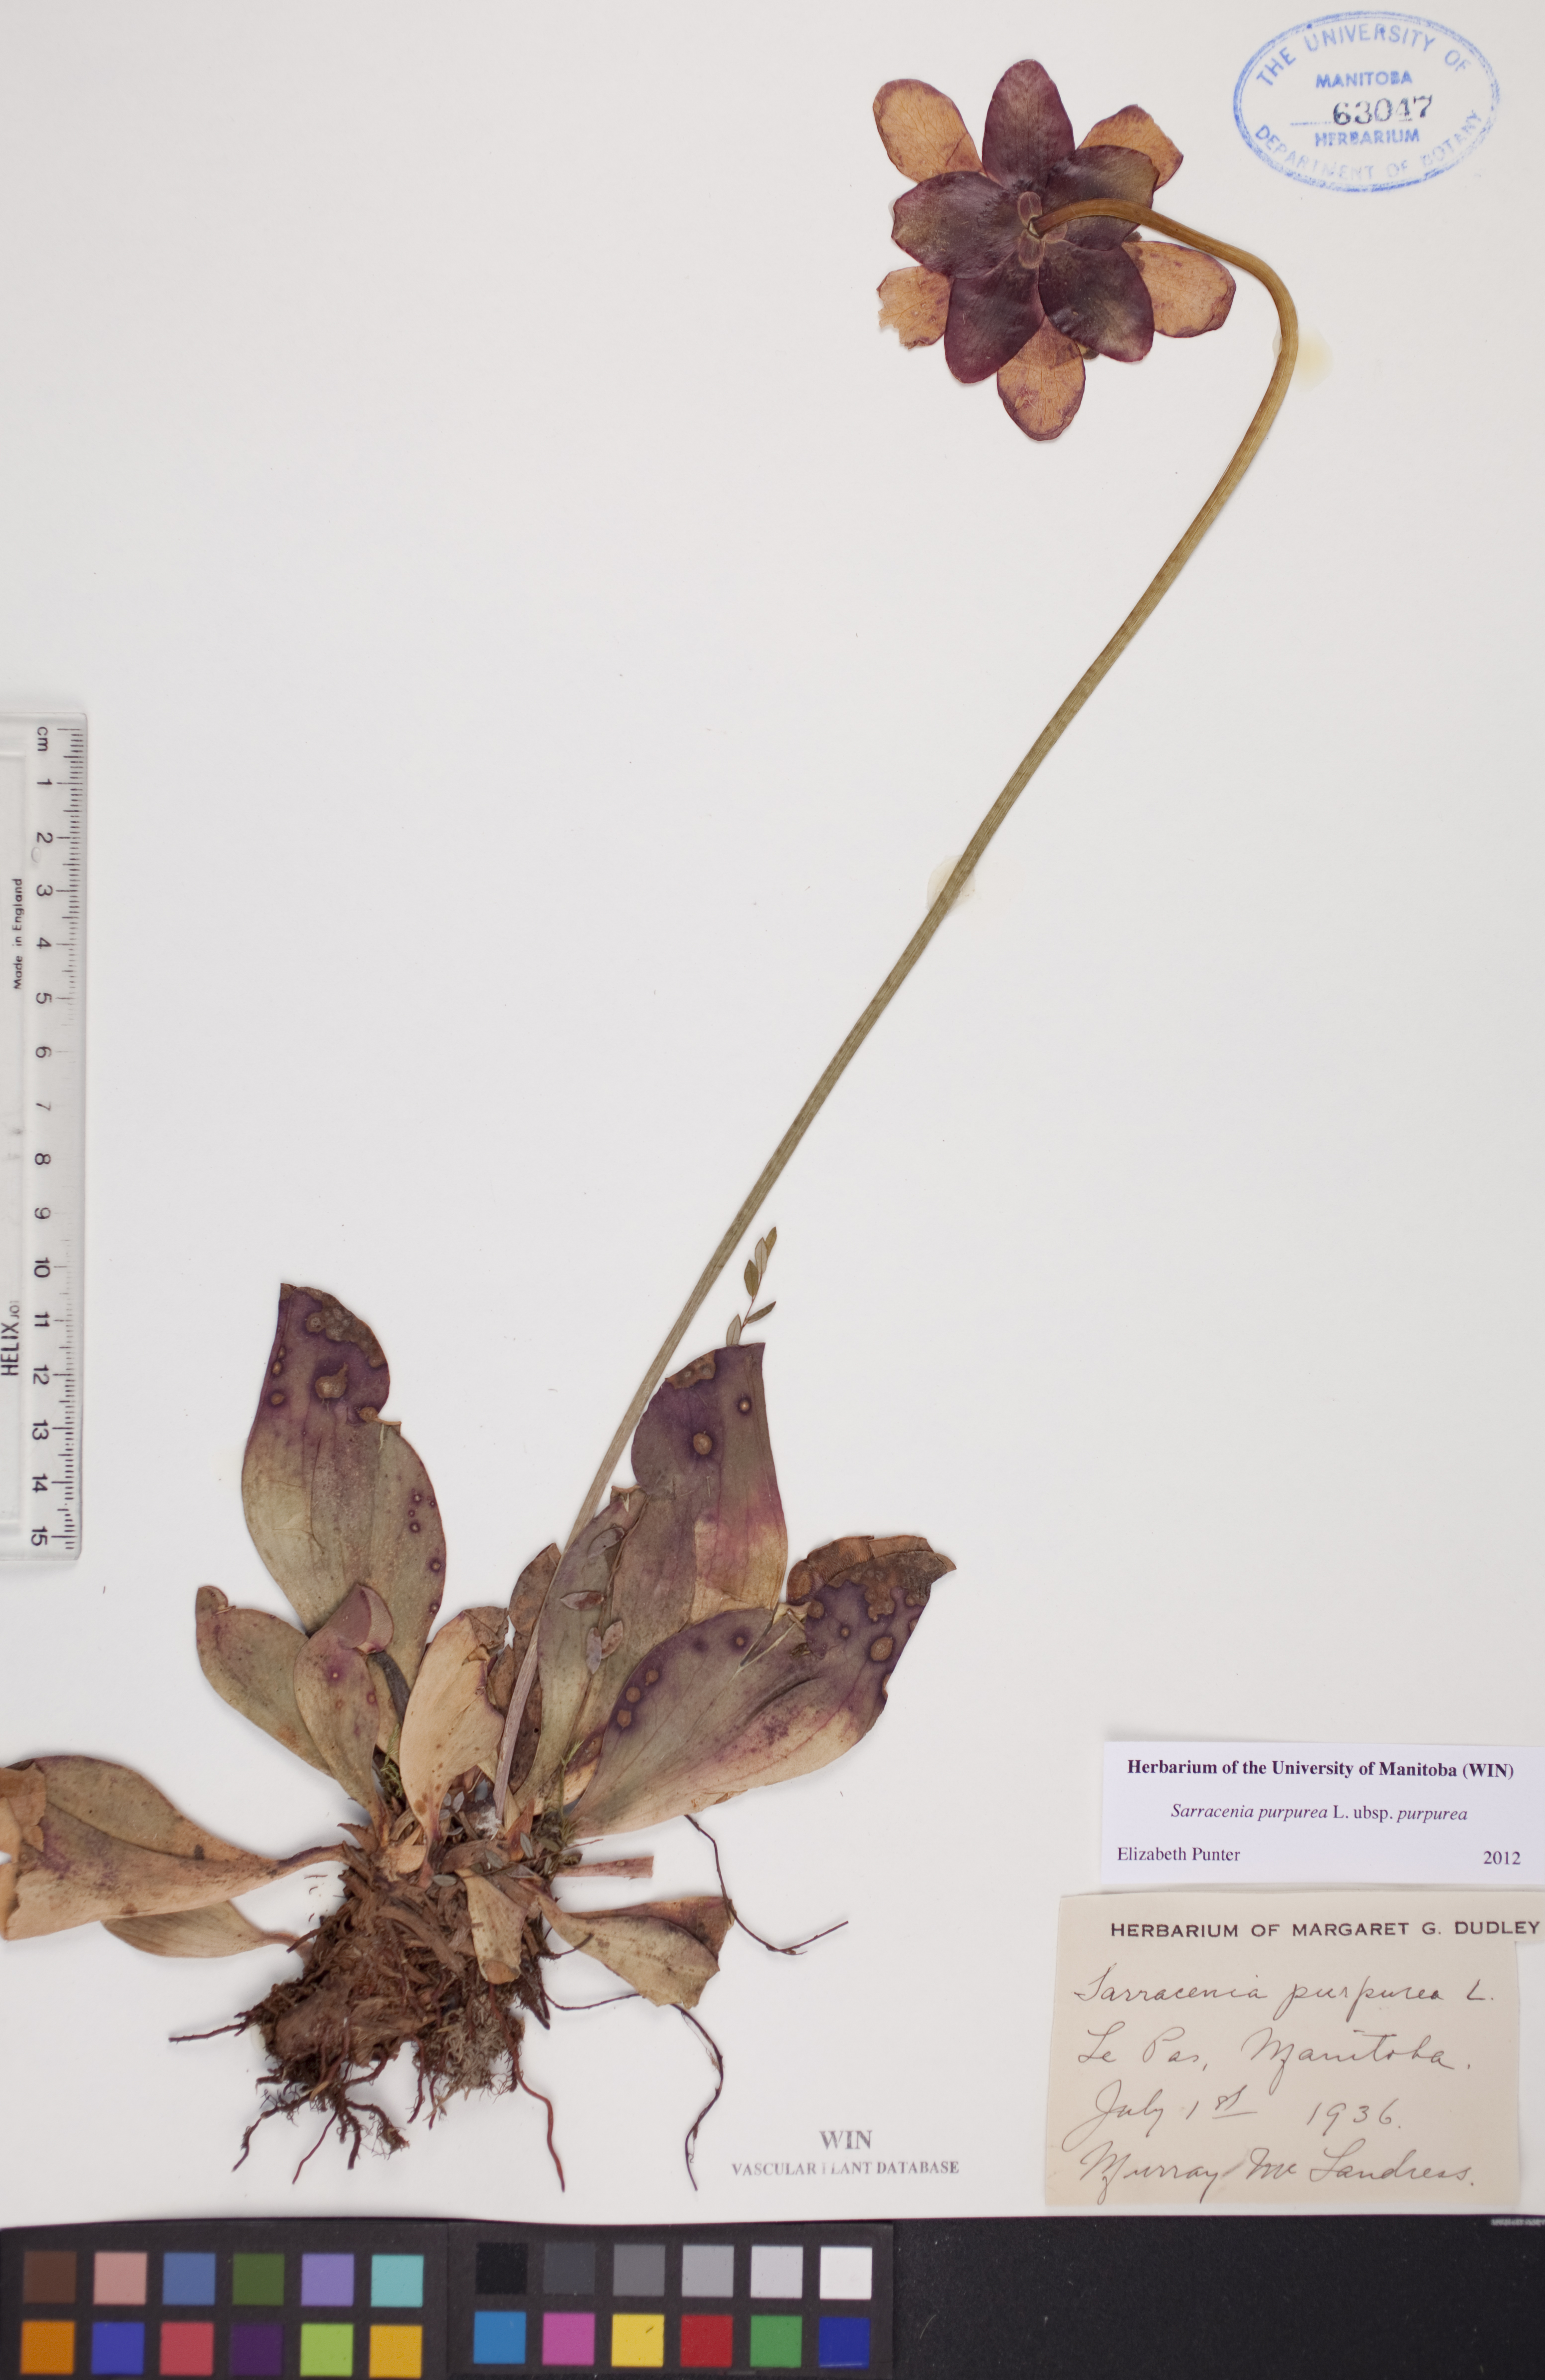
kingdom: Plantae
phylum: Tracheophyta
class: Magnoliopsida
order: Ericales
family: Sarraceniaceae
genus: Sarracenia
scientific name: Sarracenia purpurea
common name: Pitcherplant
